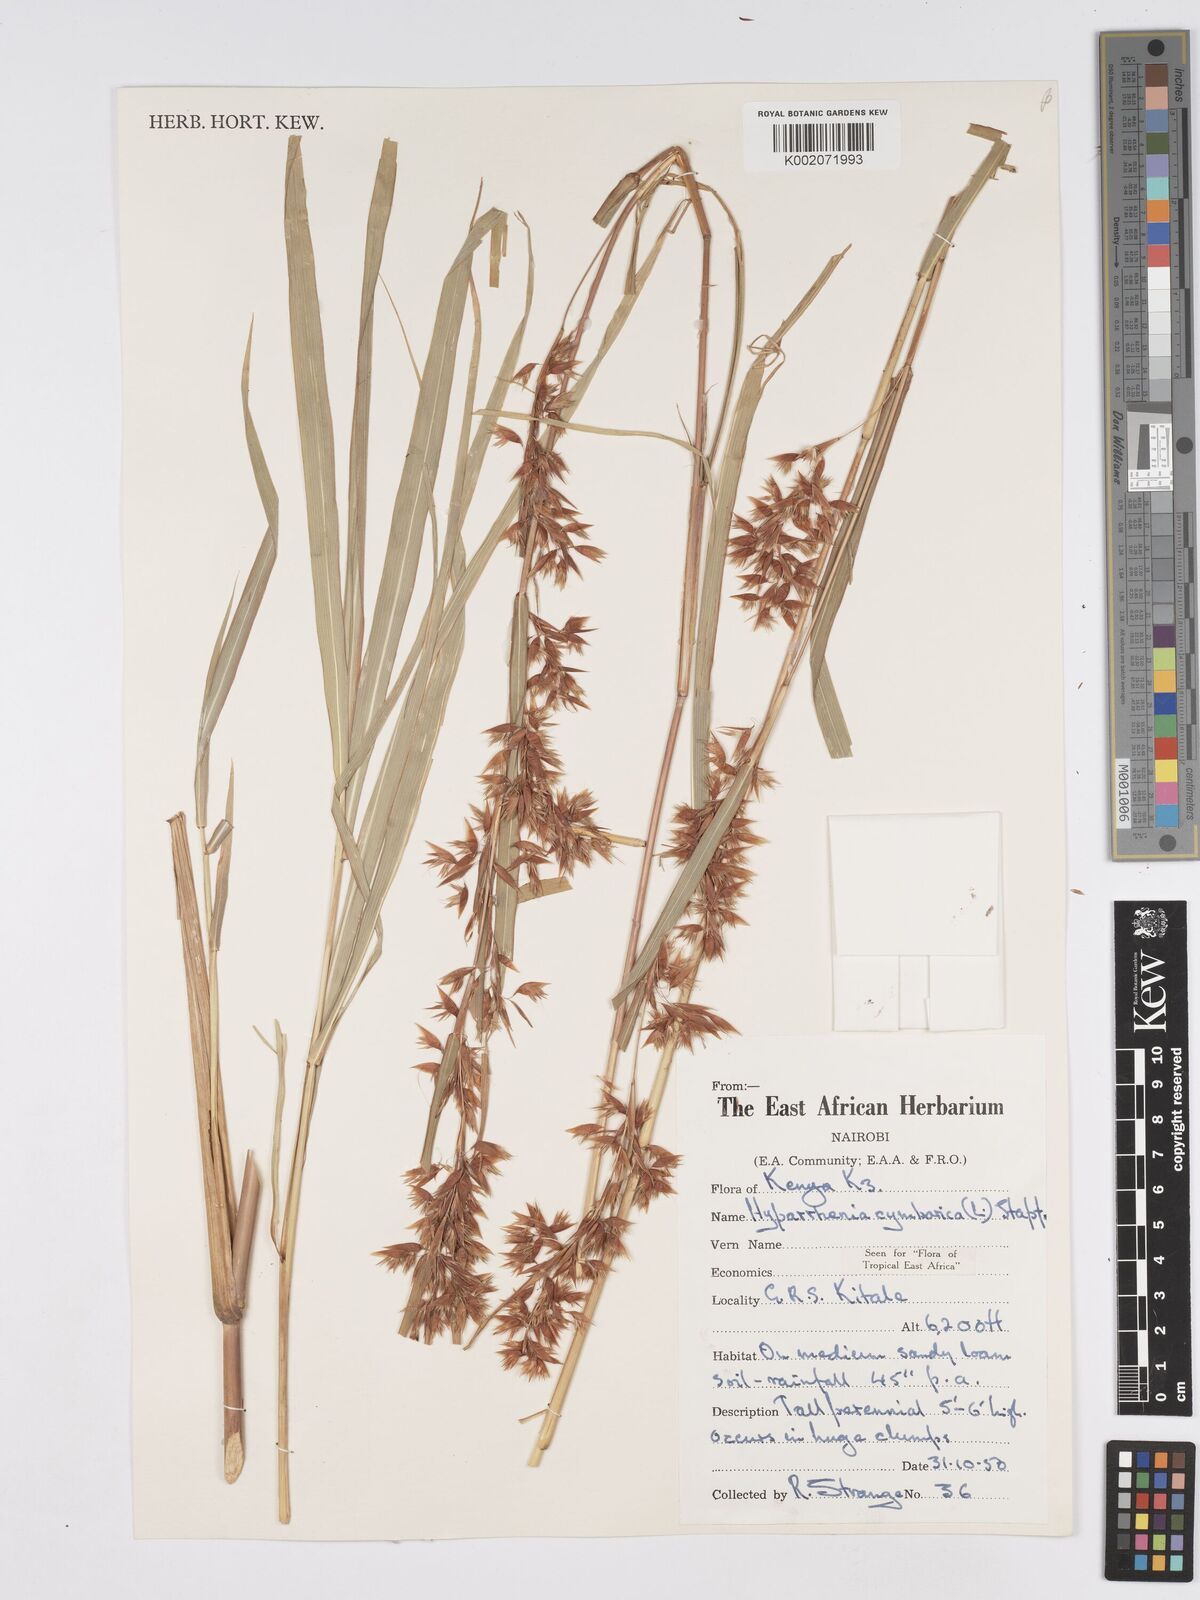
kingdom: Plantae
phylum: Tracheophyta
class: Liliopsida
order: Poales
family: Poaceae
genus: Hyparrhenia
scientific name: Hyparrhenia cymbaria
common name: Boat thatching grass
